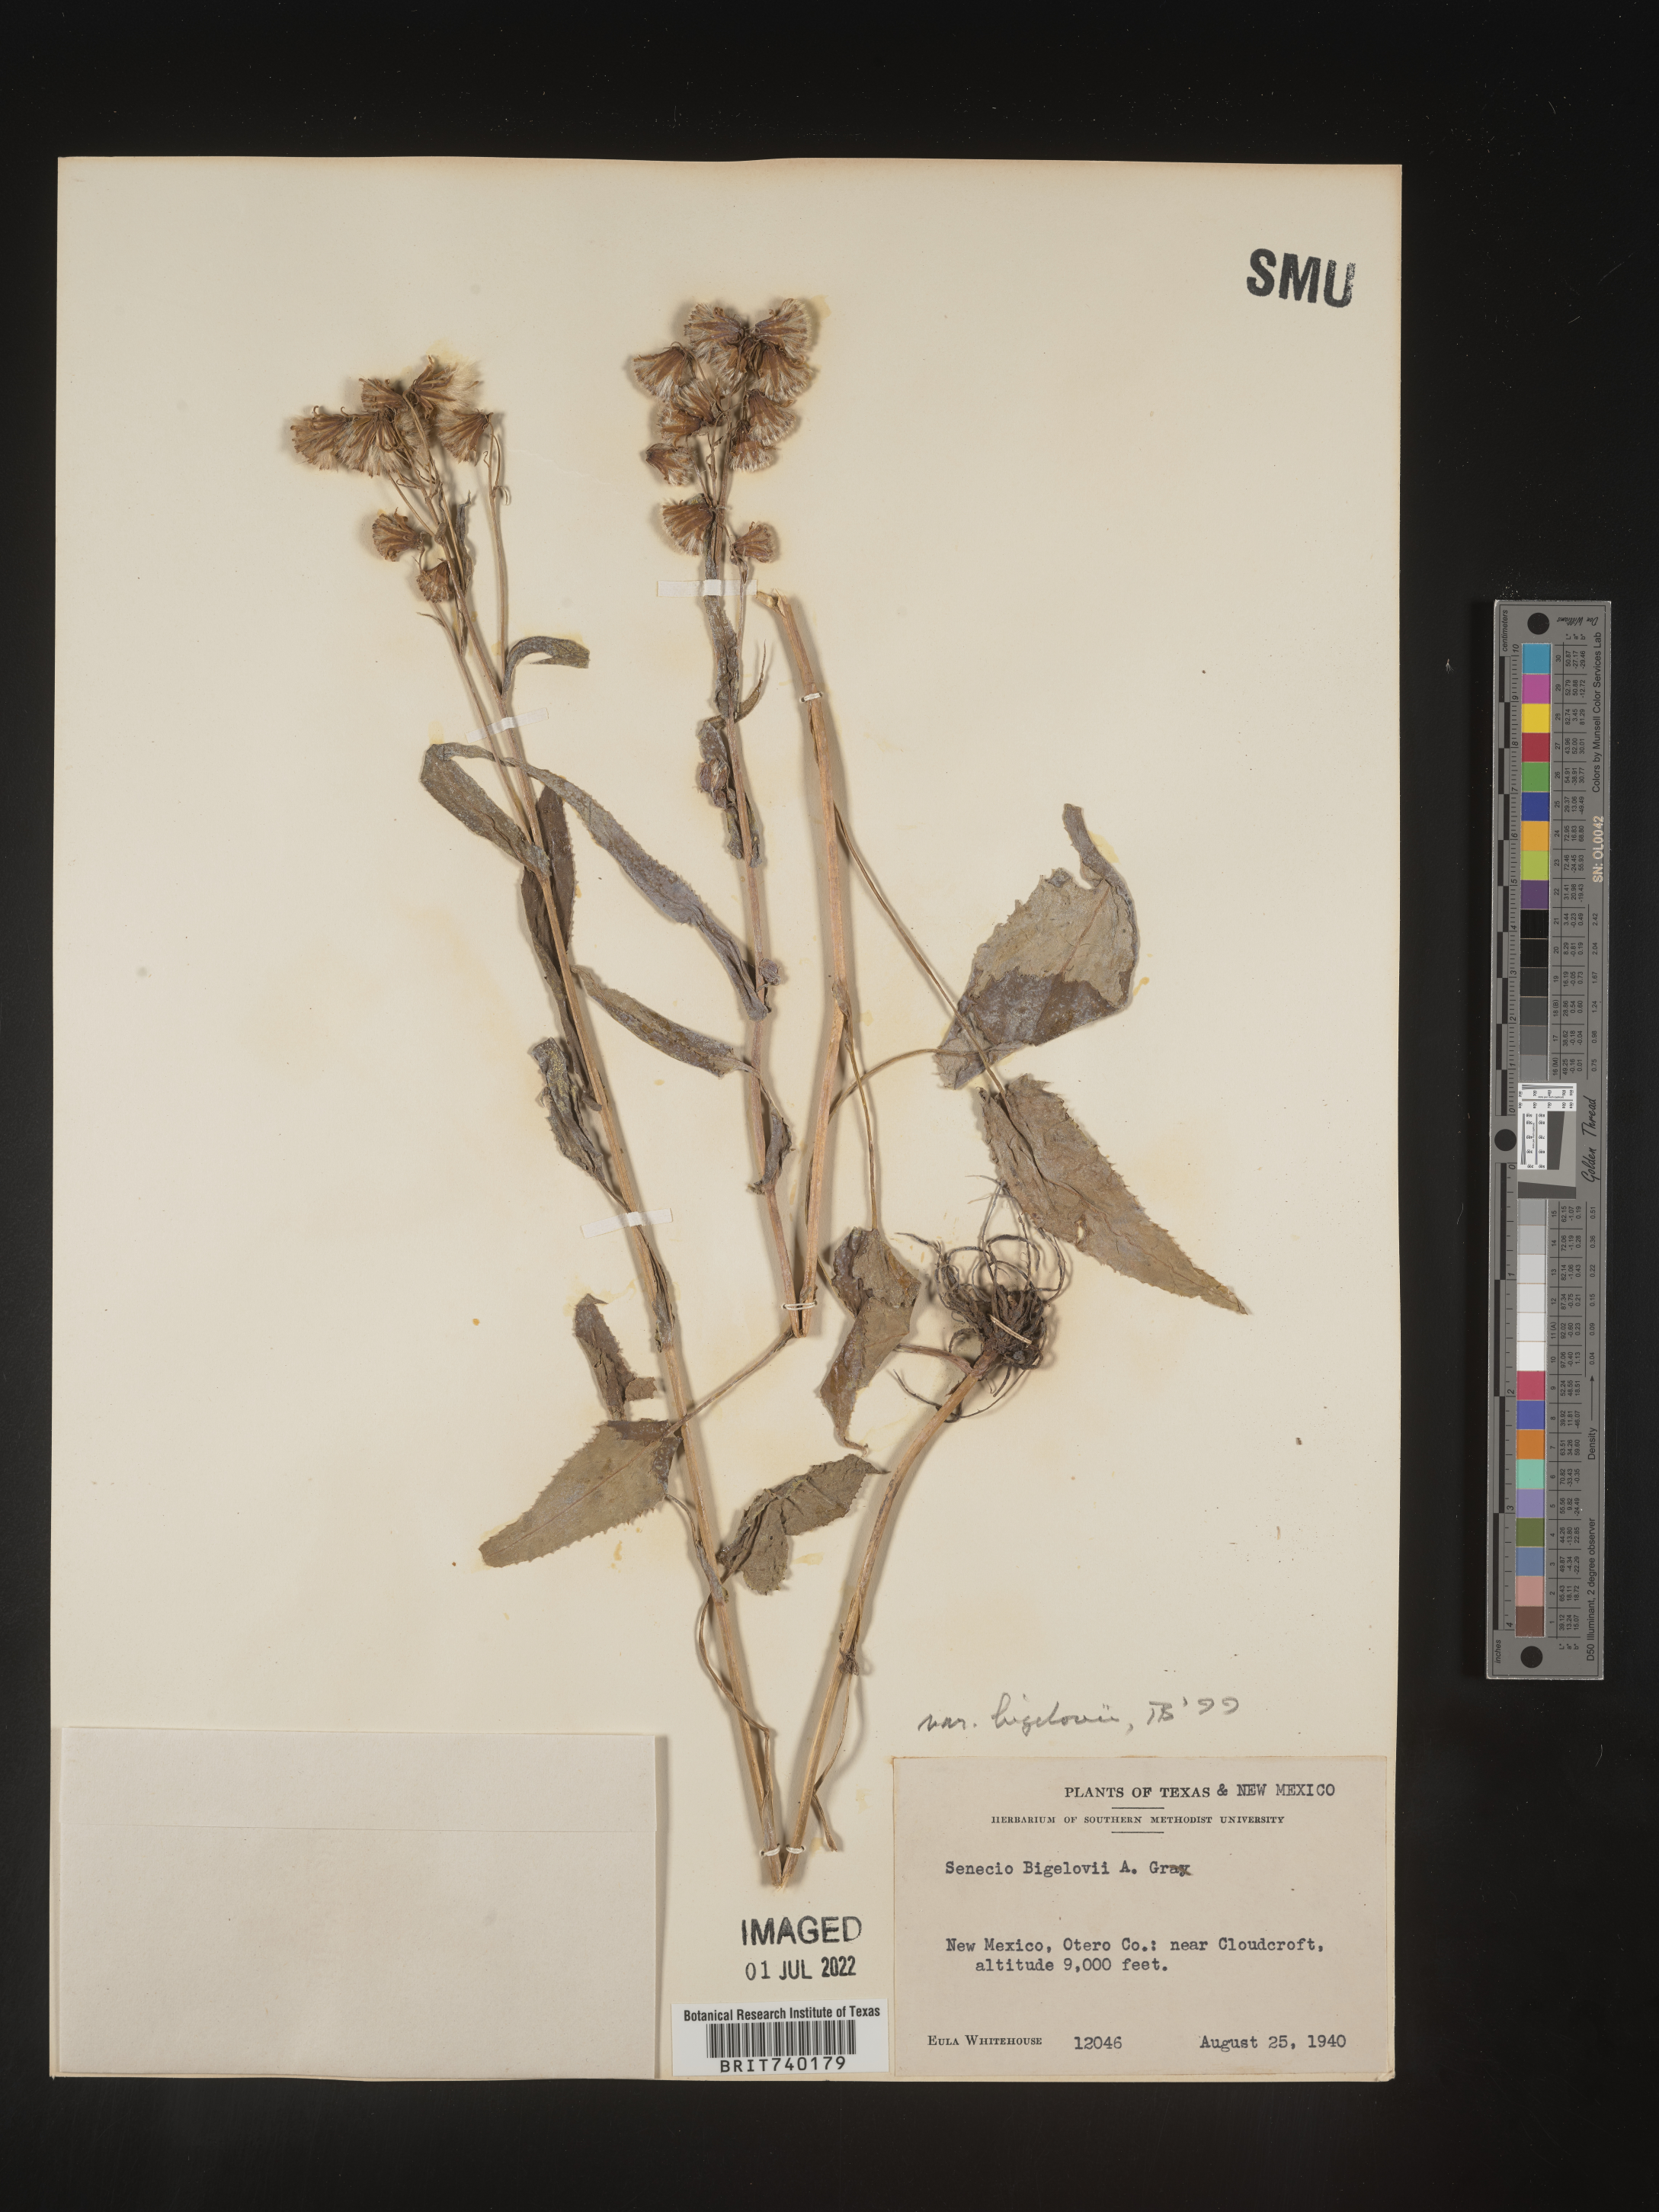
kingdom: Plantae
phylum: Tracheophyta
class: Magnoliopsida
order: Asterales
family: Asteraceae
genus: Senecio
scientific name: Senecio bigelovii
